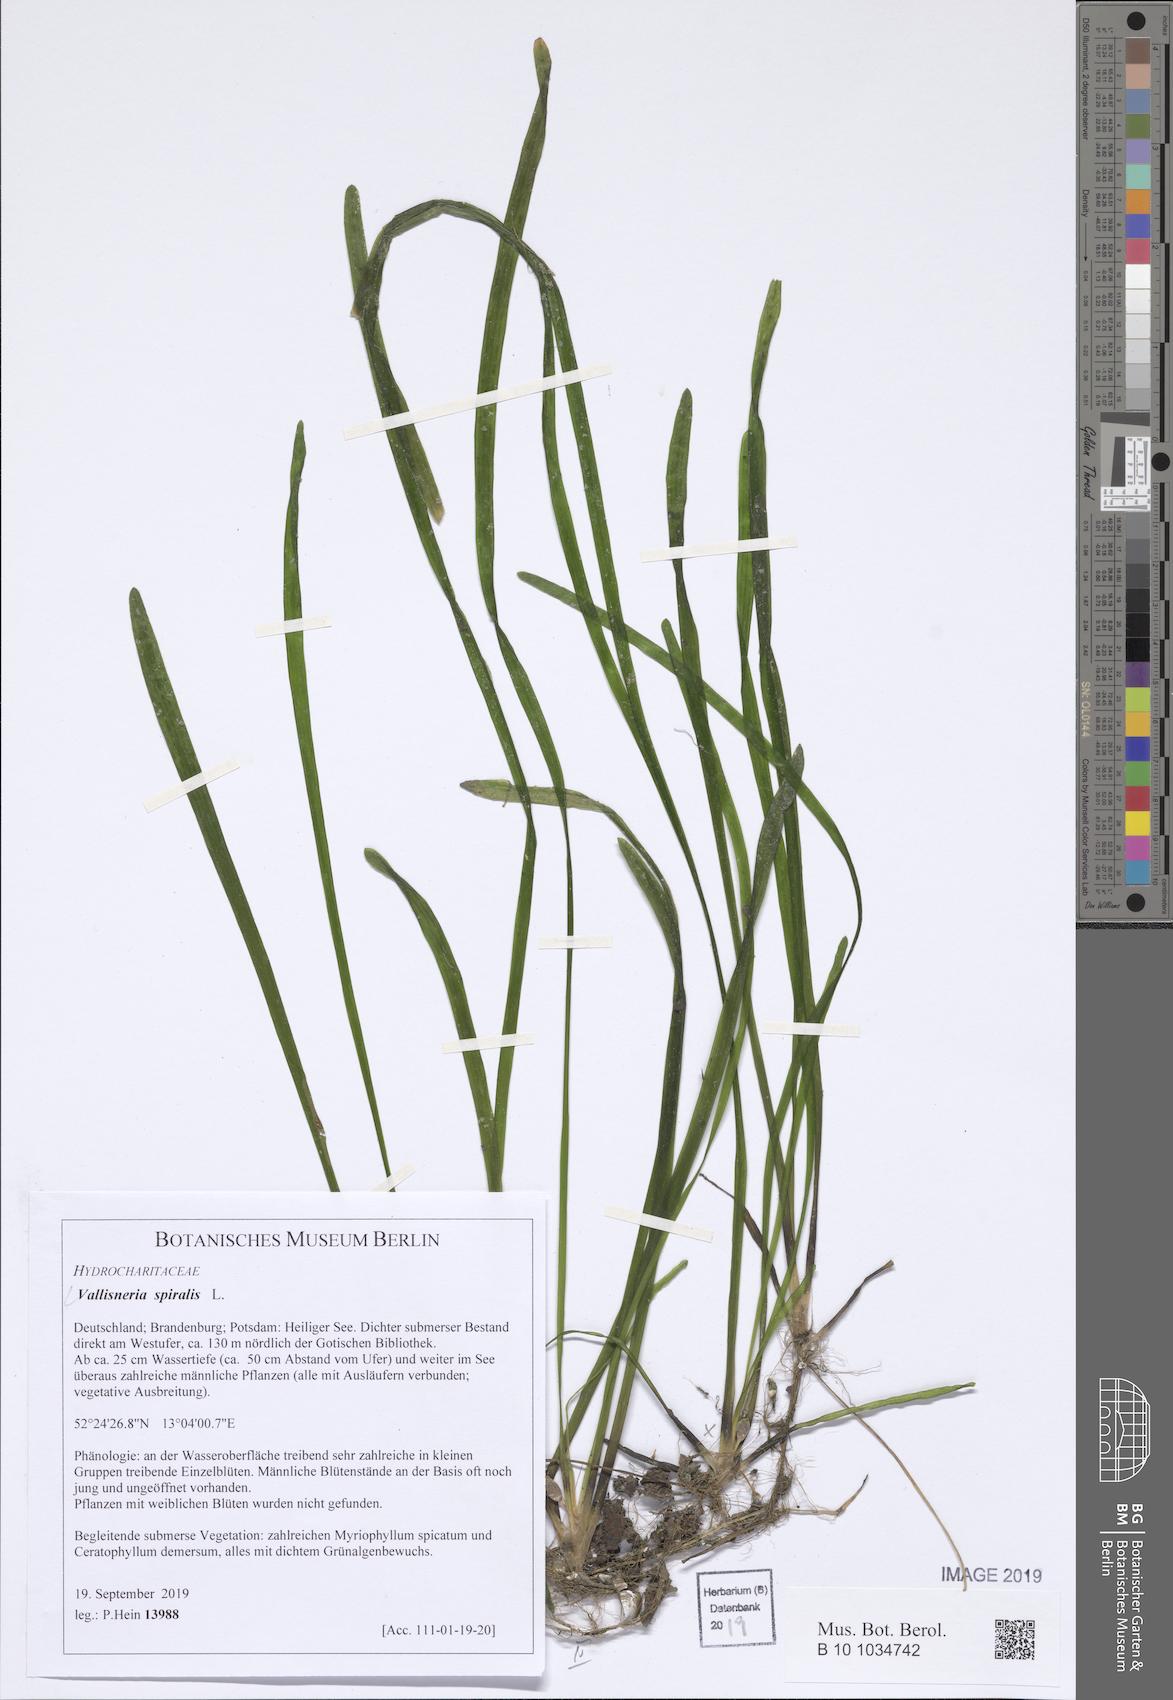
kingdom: Plantae
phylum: Tracheophyta
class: Liliopsida
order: Alismatales
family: Hydrocharitaceae
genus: Vallisneria
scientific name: Vallisneria spiralis
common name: Tapegrass
